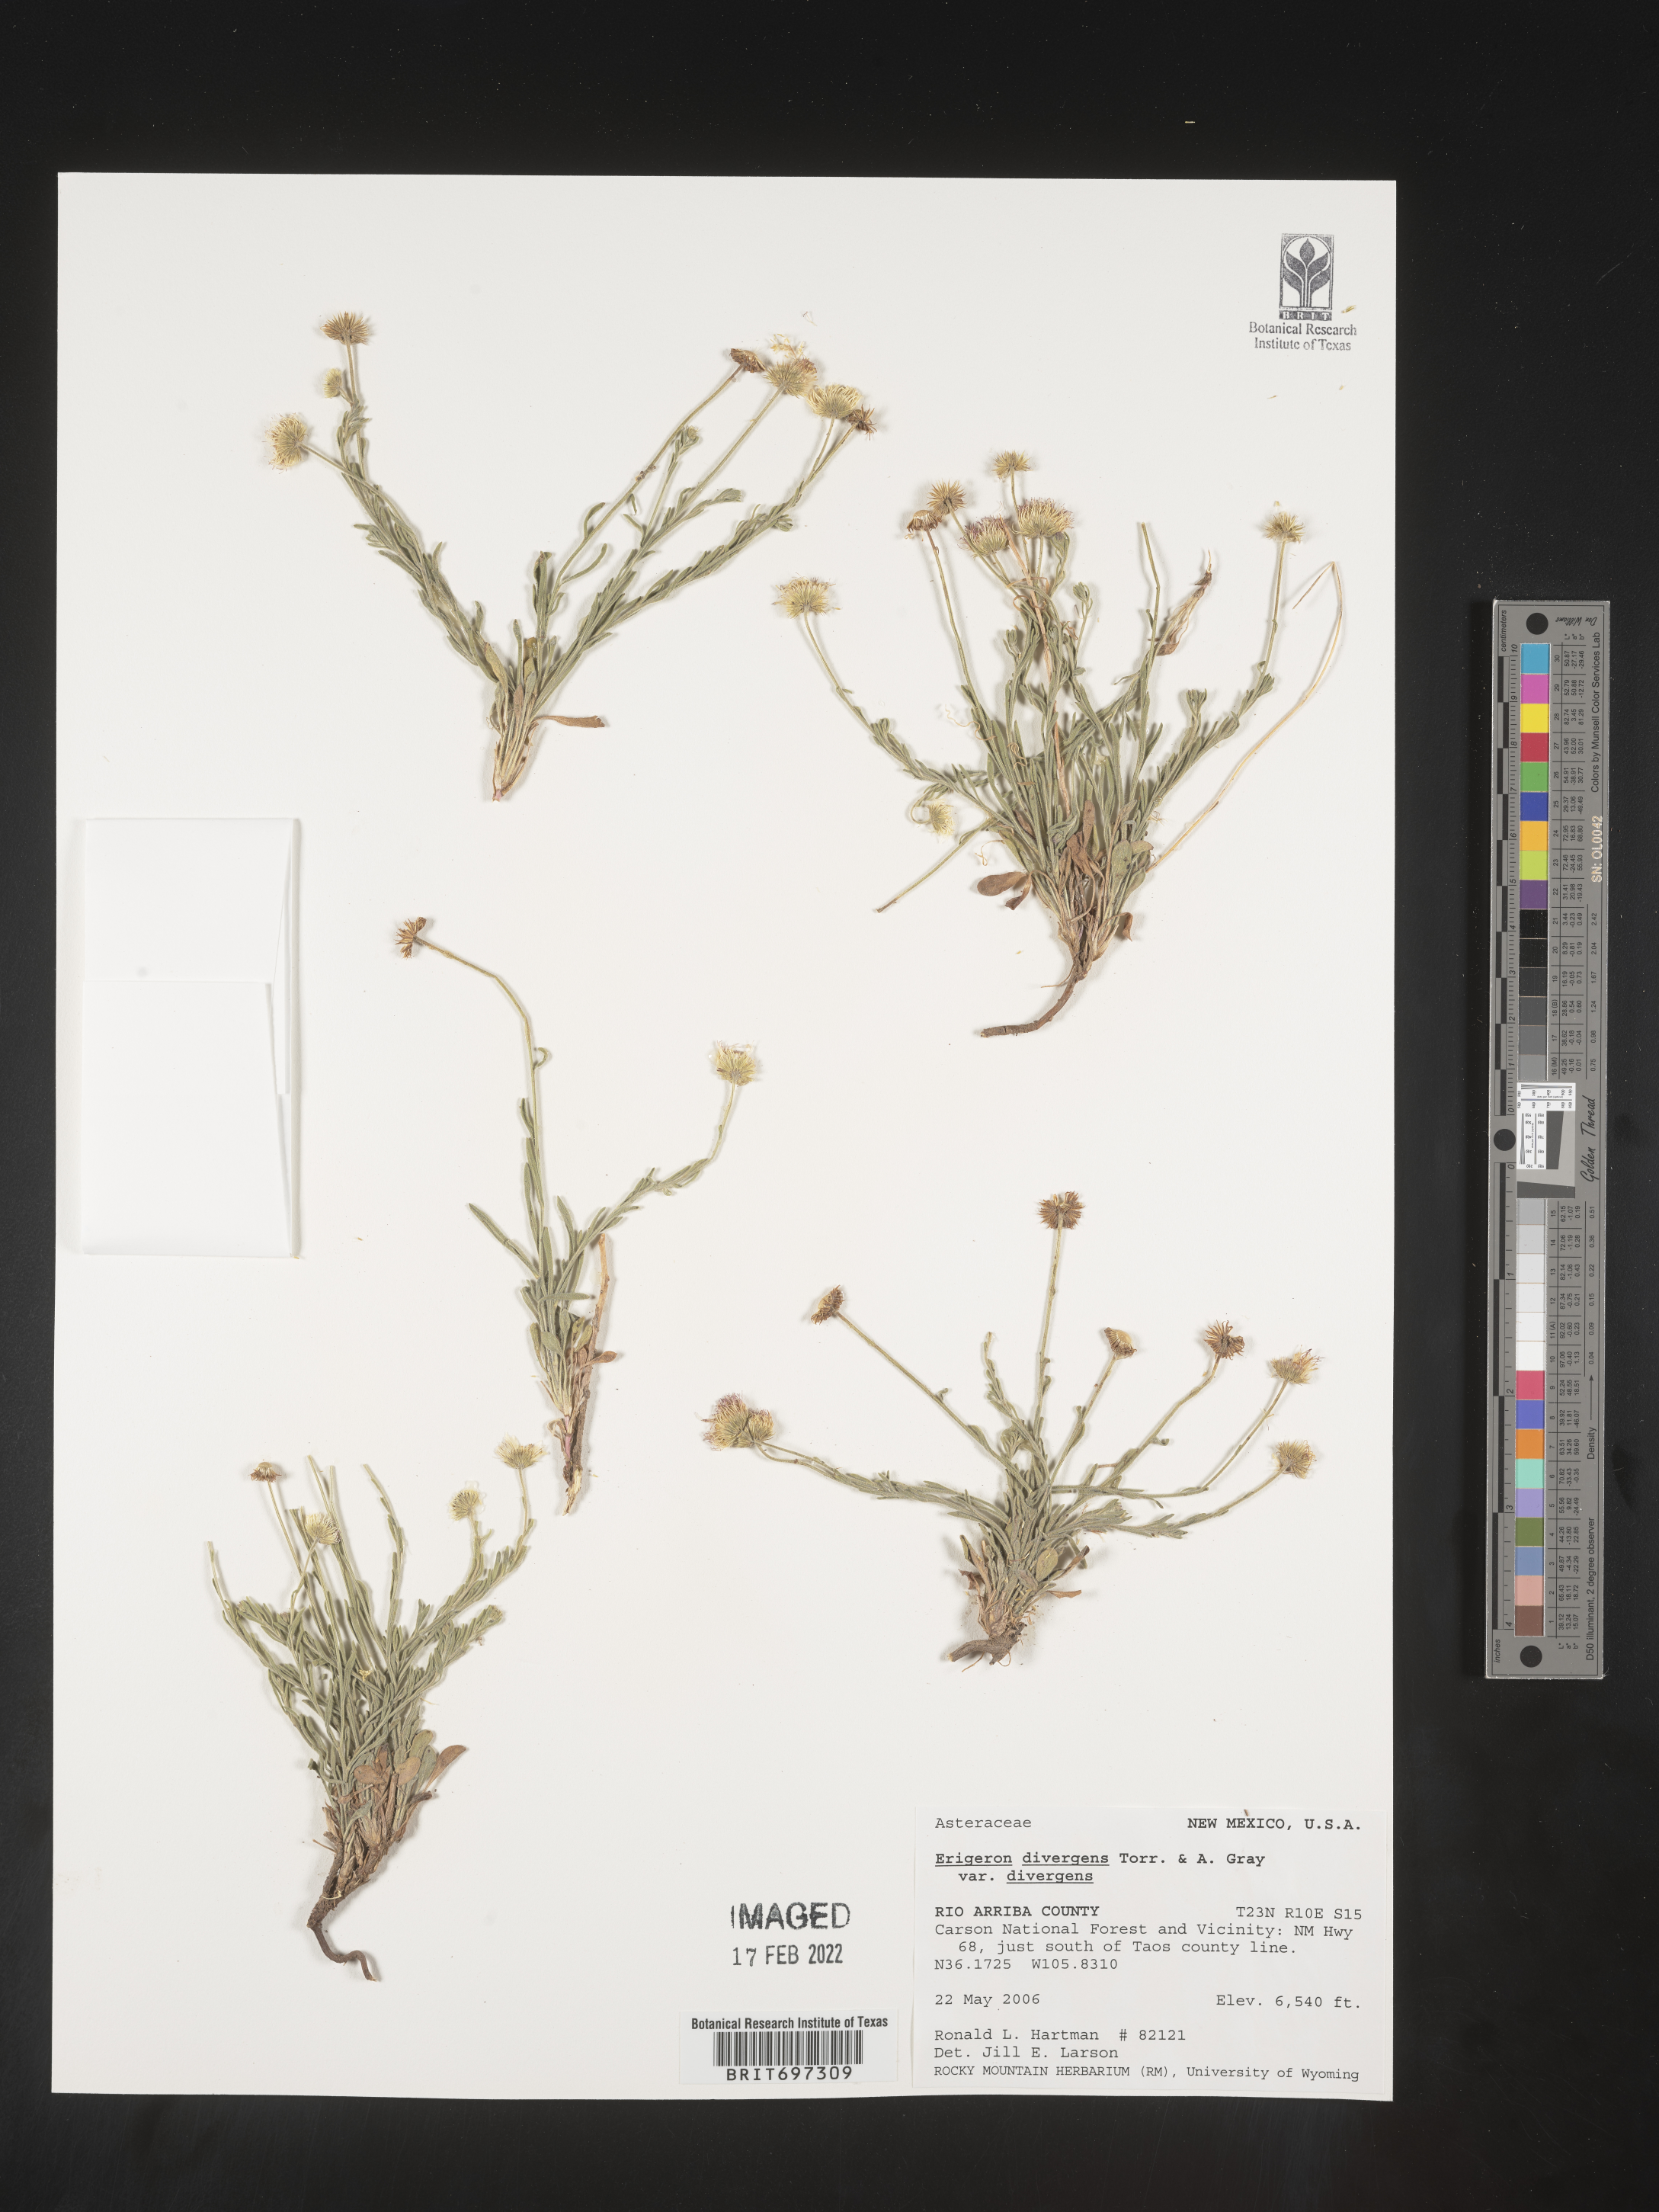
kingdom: Plantae
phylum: Tracheophyta
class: Magnoliopsida
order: Asterales
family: Asteraceae
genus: Erigeron
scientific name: Erigeron divergens
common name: Diffuse fleabane
